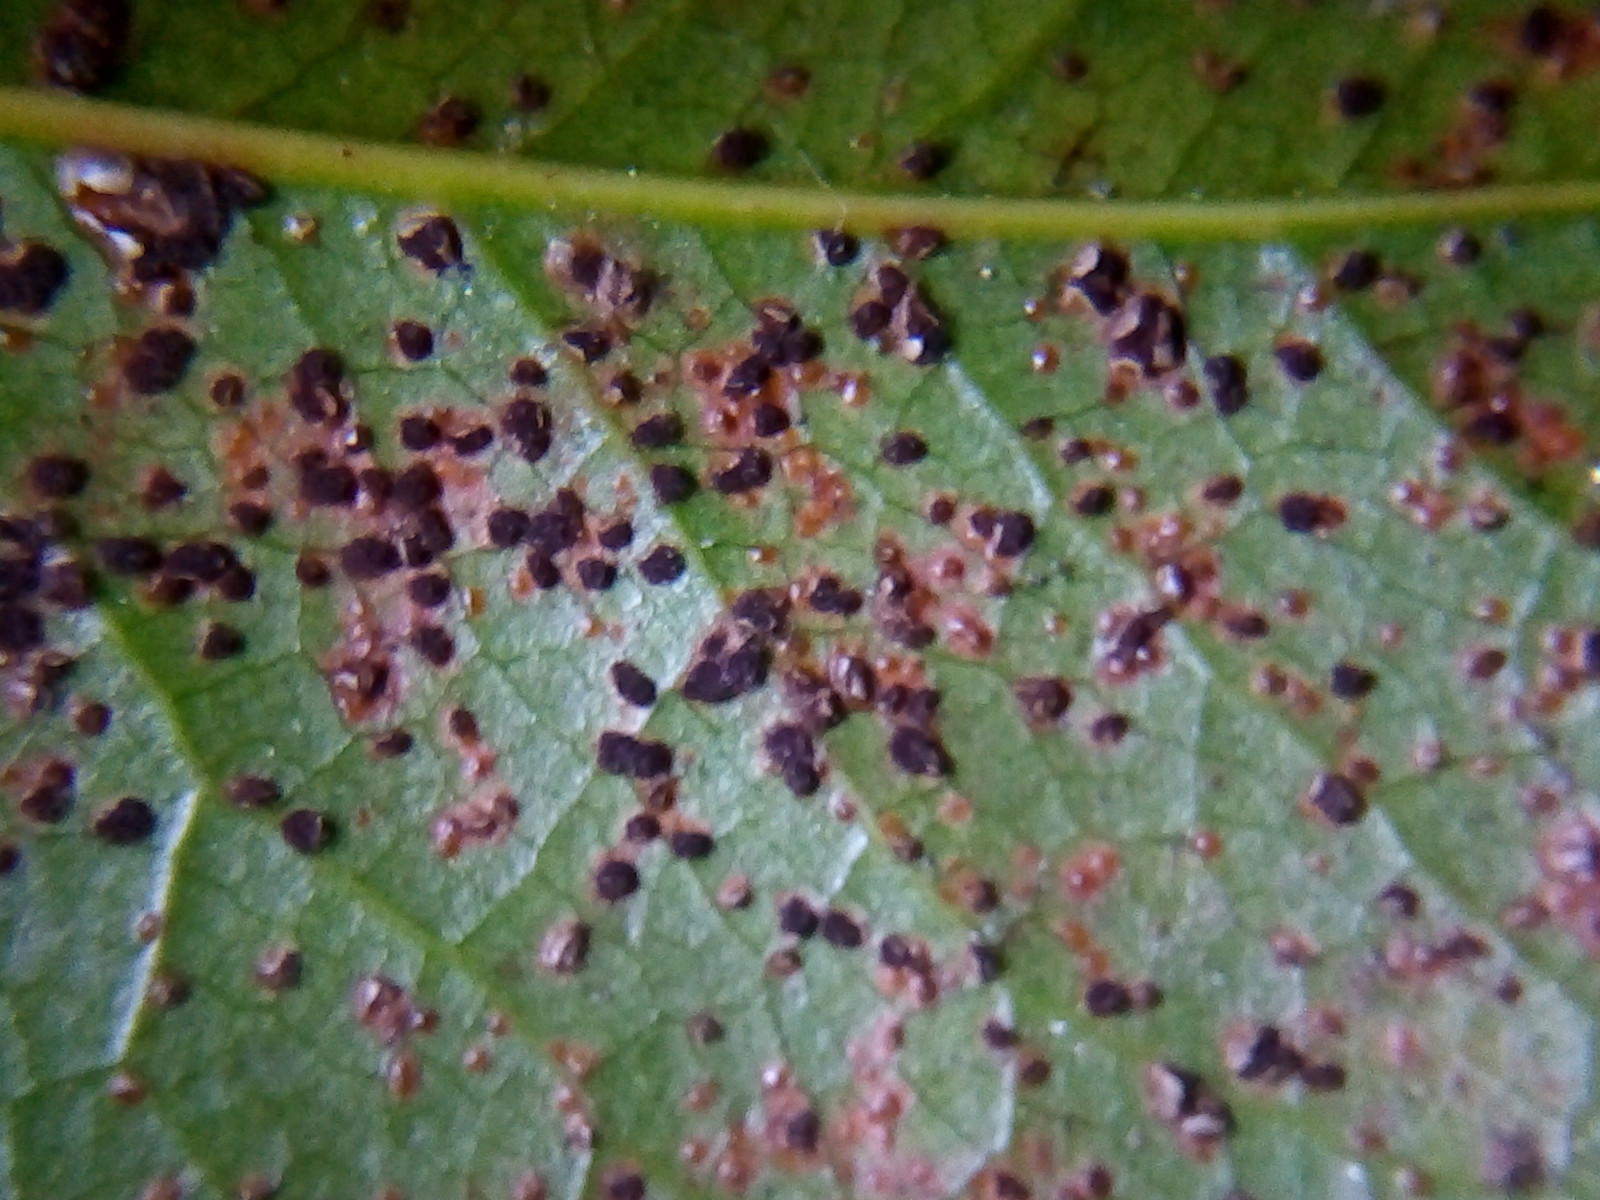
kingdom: Fungi
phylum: Basidiomycota
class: Pucciniomycetes
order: Pucciniales
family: Pucciniaceae
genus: Cumminsiella
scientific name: Cumminsiella mirabilissima
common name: mahonierust
